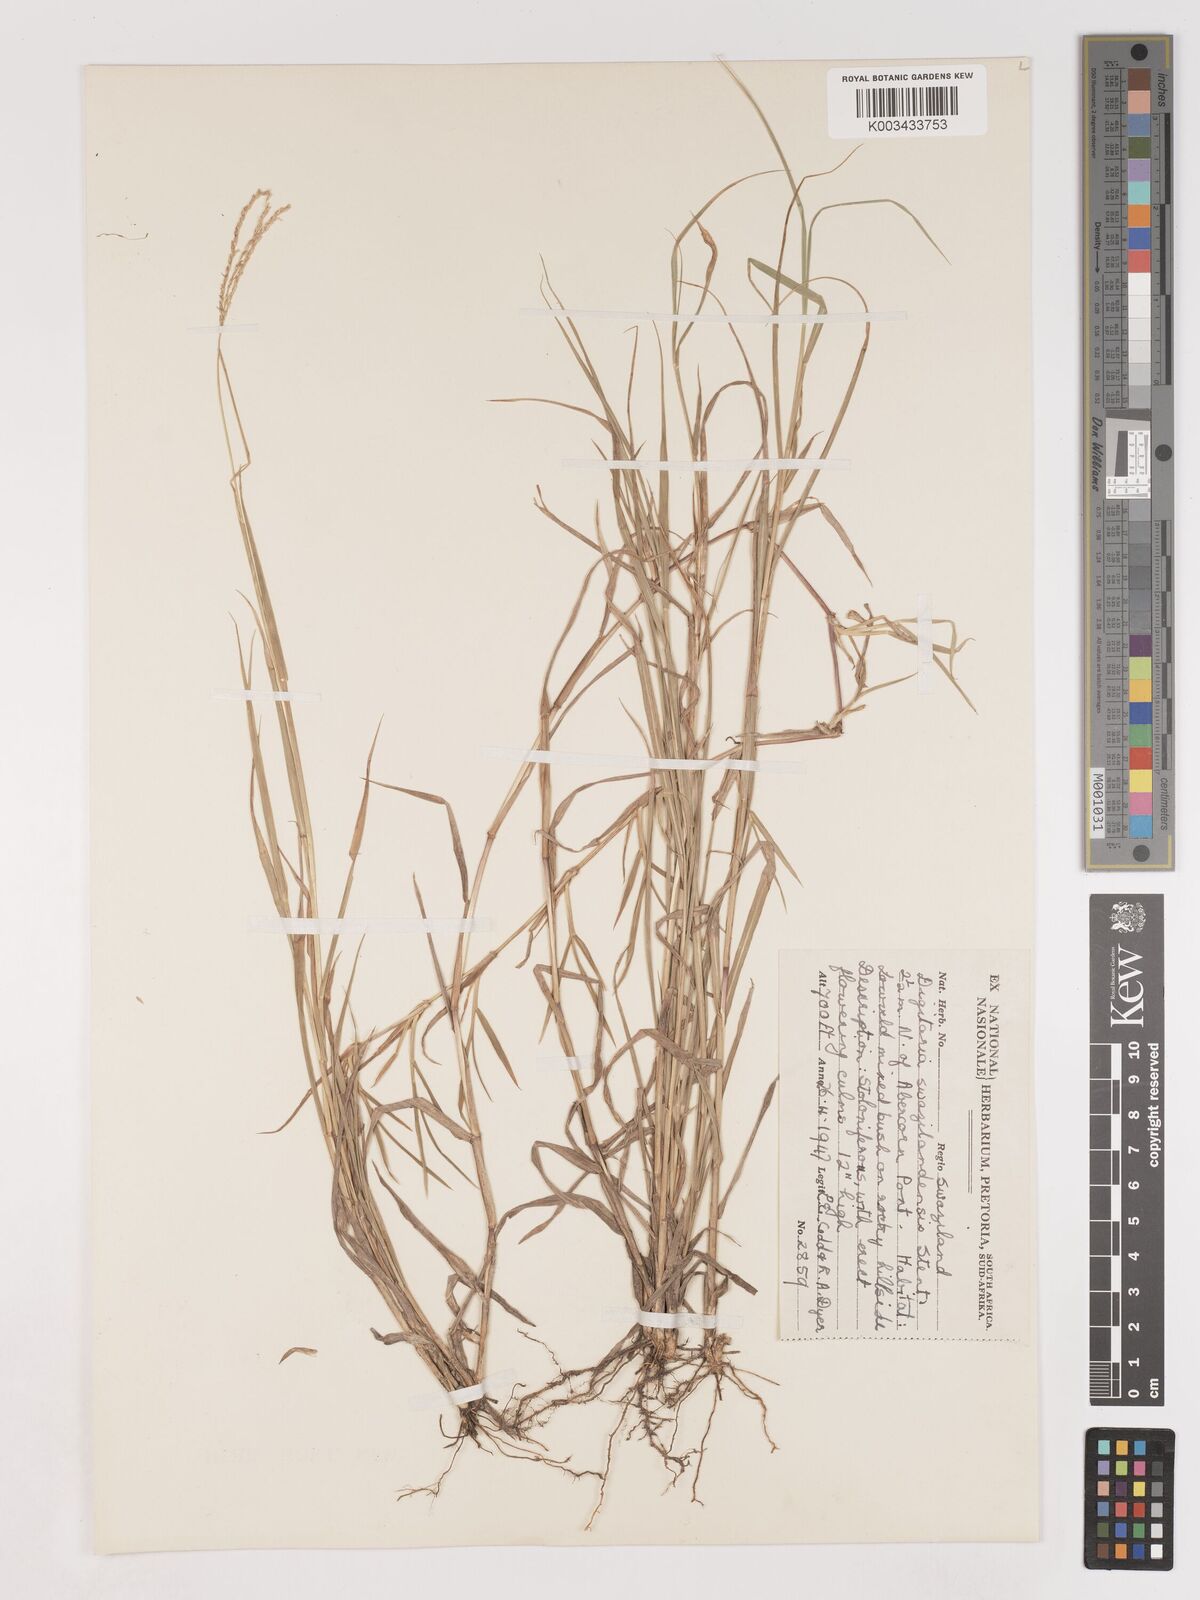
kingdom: Plantae
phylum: Tracheophyta
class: Liliopsida
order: Poales
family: Poaceae
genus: Digitaria
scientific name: Digitaria didactyla
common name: Blue couch
